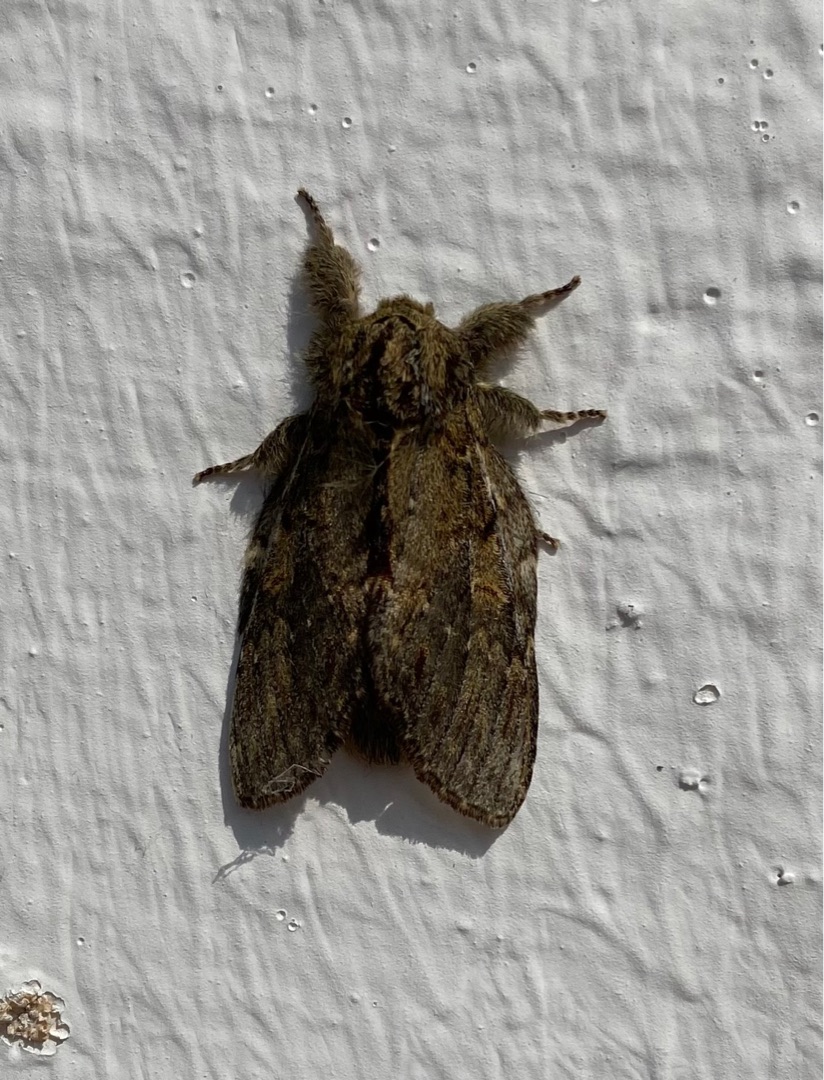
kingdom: Animalia
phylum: Arthropoda
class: Insecta
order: Lepidoptera
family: Notodontidae
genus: Peridea
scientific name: Peridea anceps
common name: Egetandspinder
